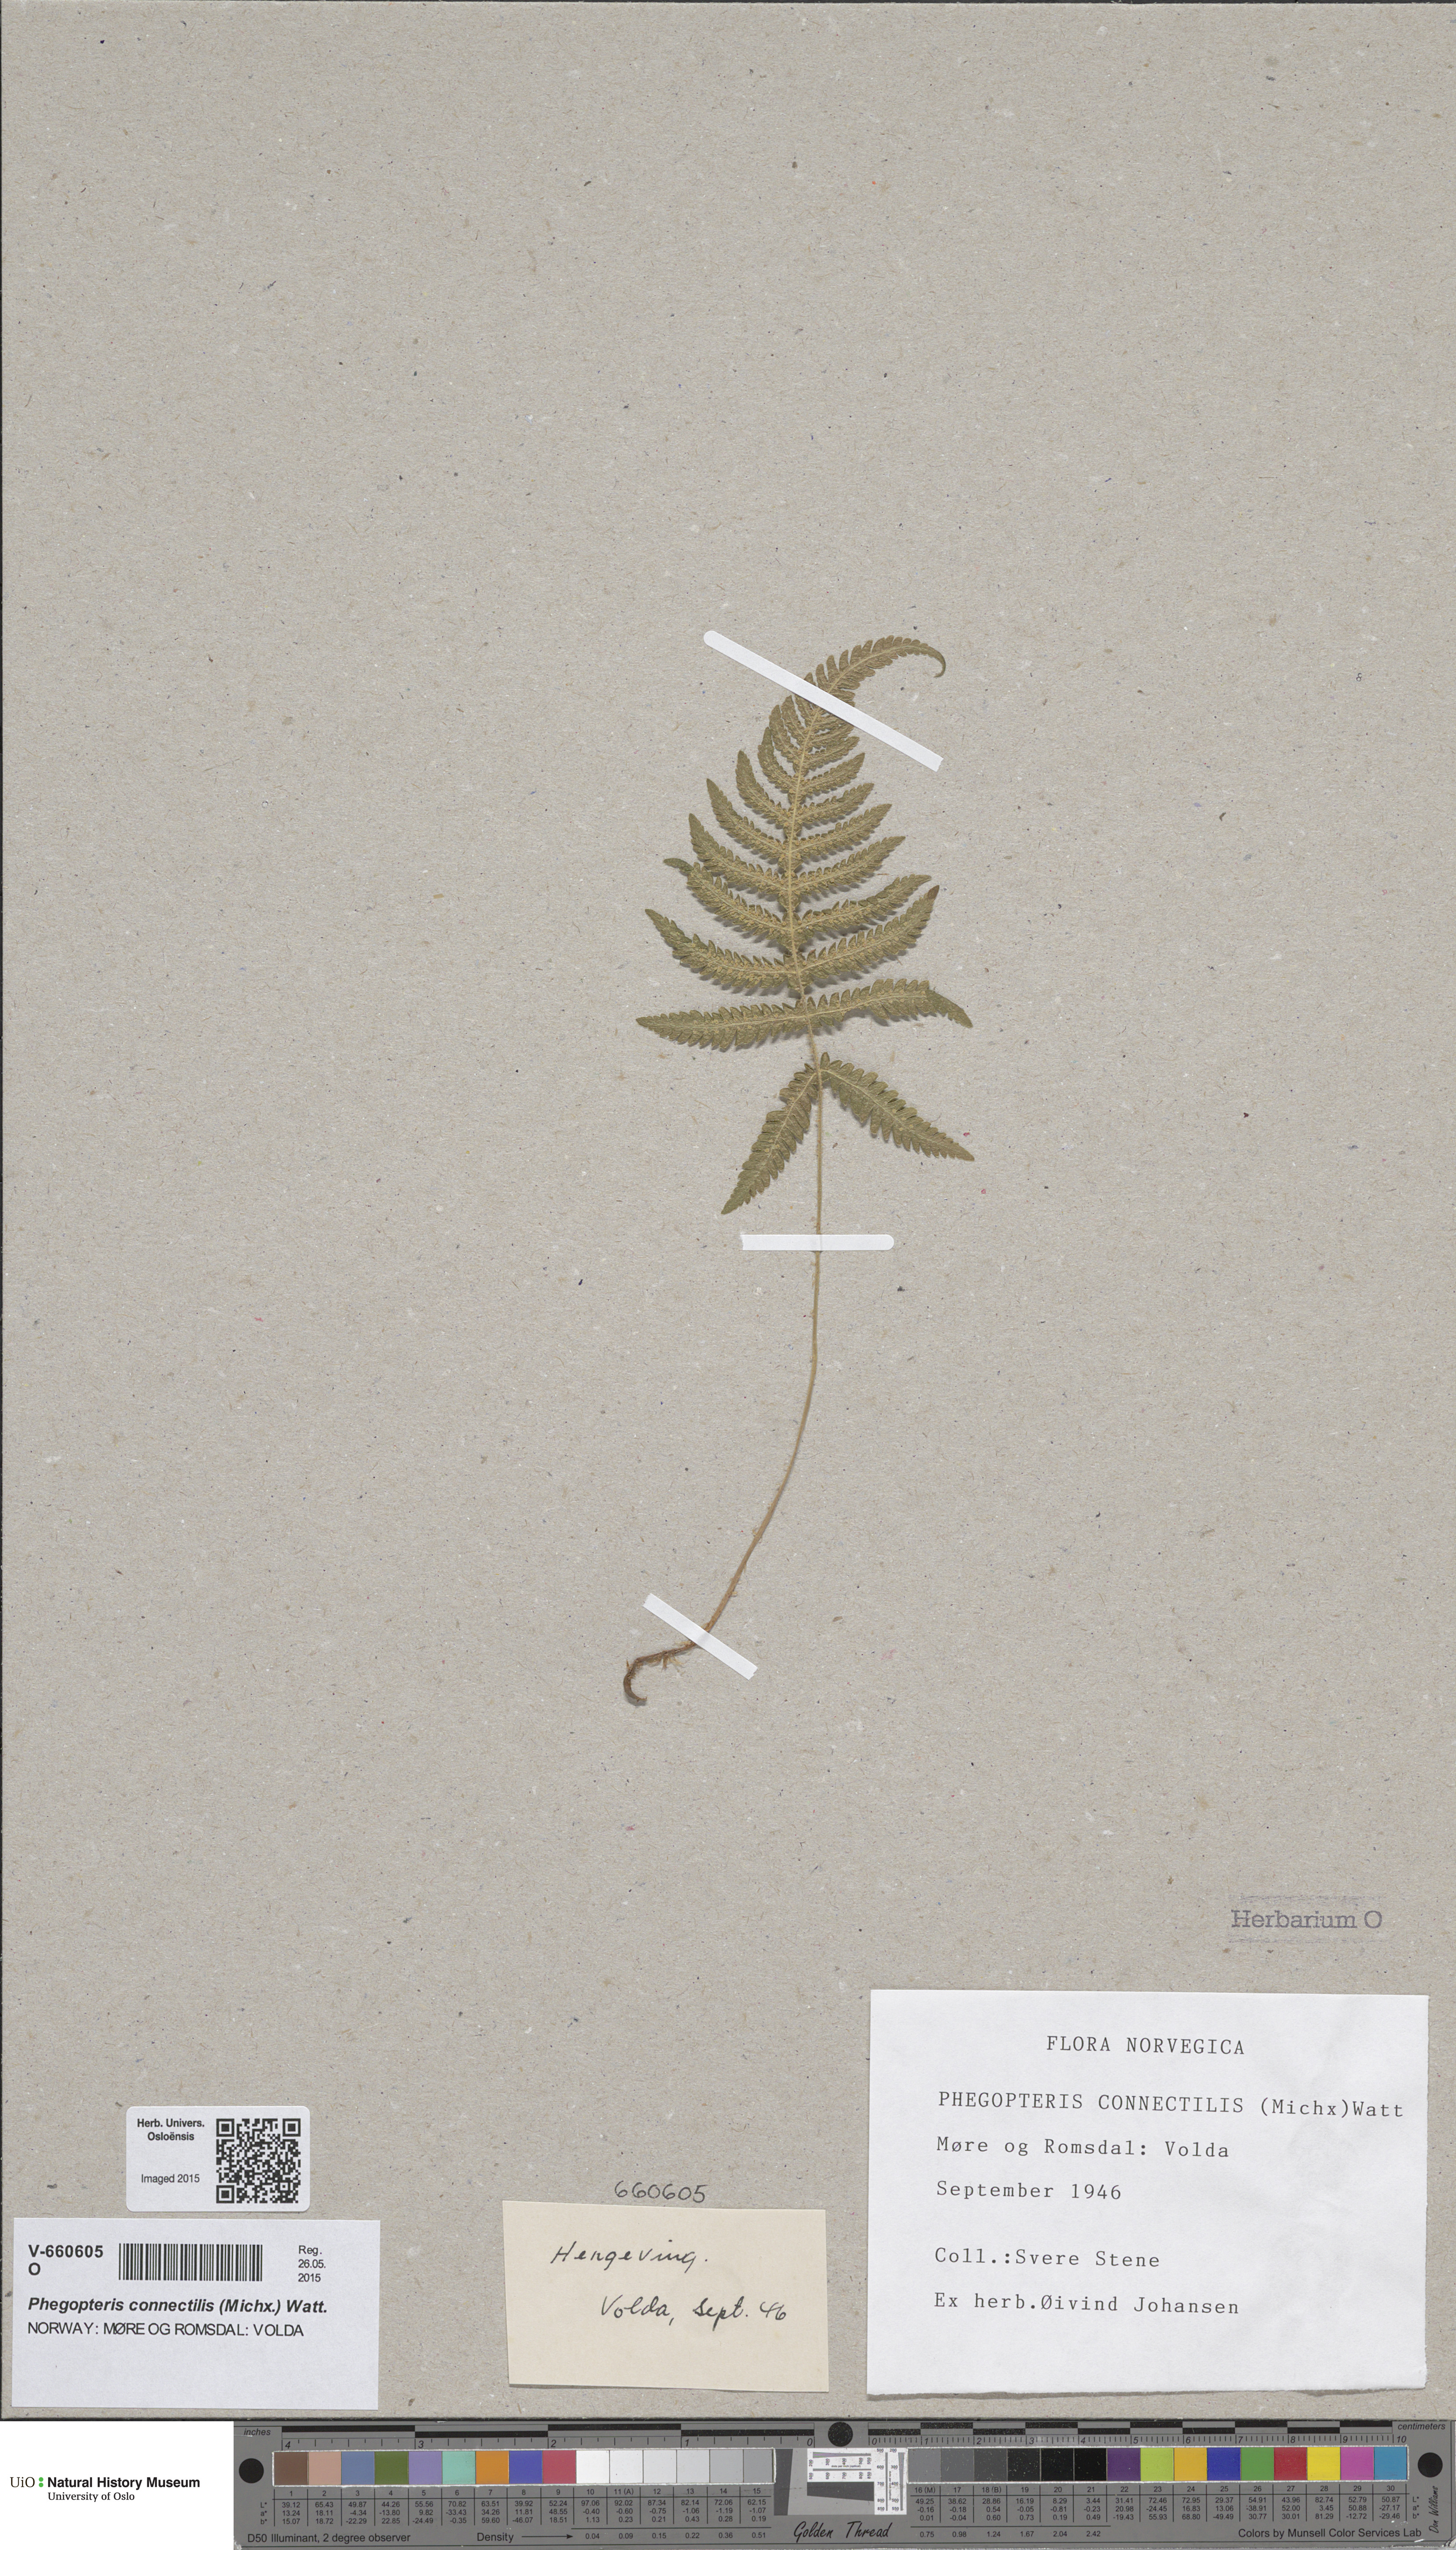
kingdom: Plantae
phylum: Tracheophyta
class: Polypodiopsida
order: Polypodiales
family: Thelypteridaceae
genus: Phegopteris
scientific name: Phegopteris connectilis
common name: Beech fern
